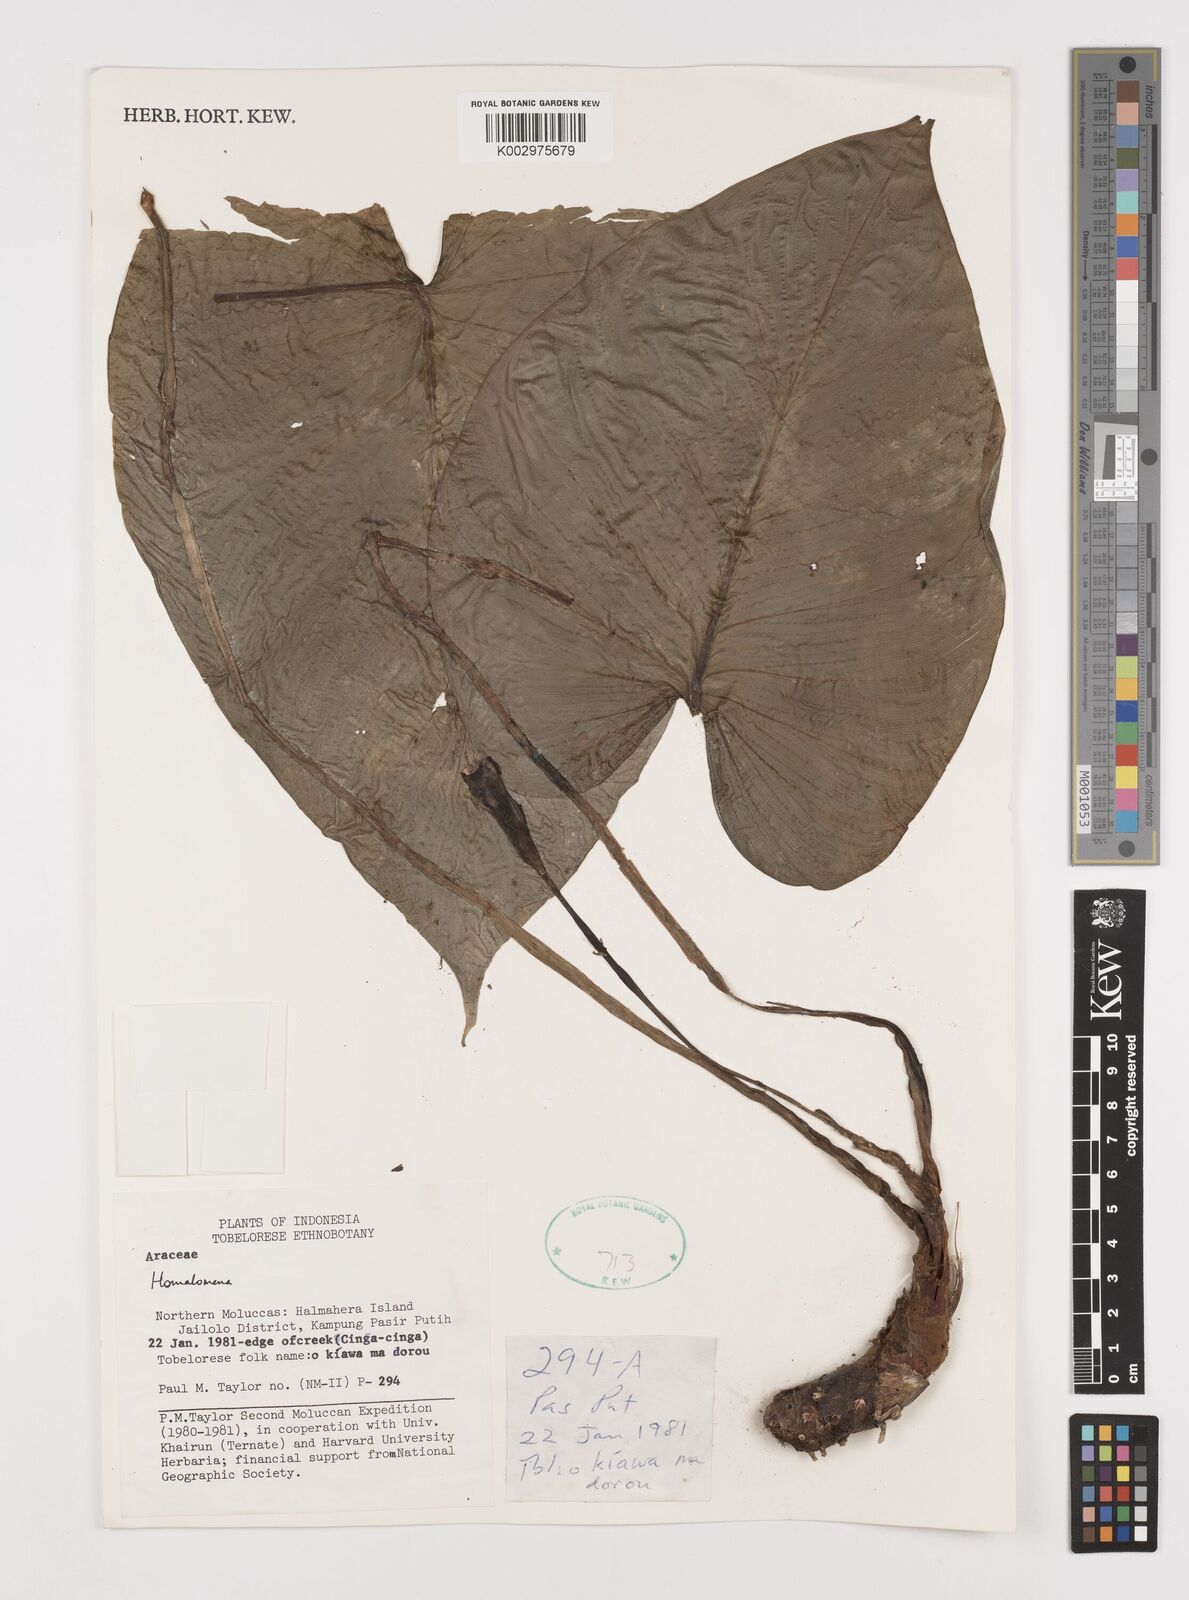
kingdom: Plantae
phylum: Tracheophyta
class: Liliopsida
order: Alismatales
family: Araceae
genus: Homalomena
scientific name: Homalomena
